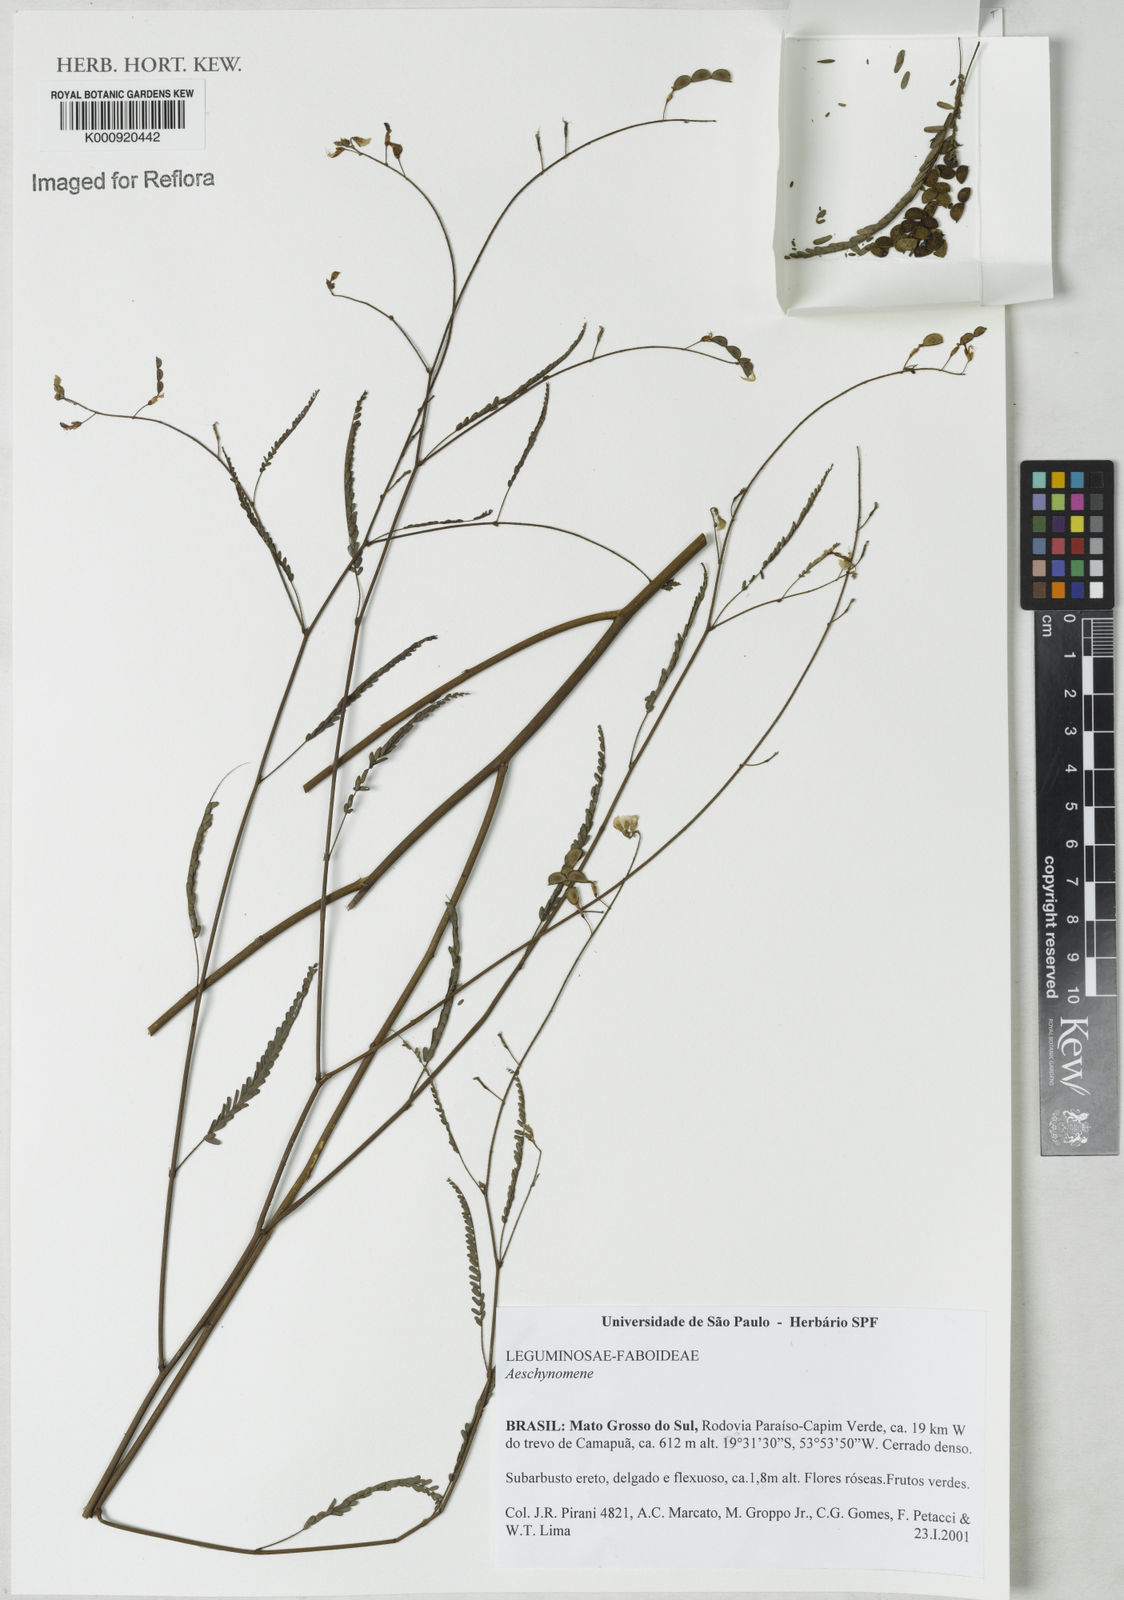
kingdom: Plantae
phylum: Tracheophyta
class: Magnoliopsida
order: Fabales
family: Fabaceae
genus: Aeschynomene
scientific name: Aeschynomene
